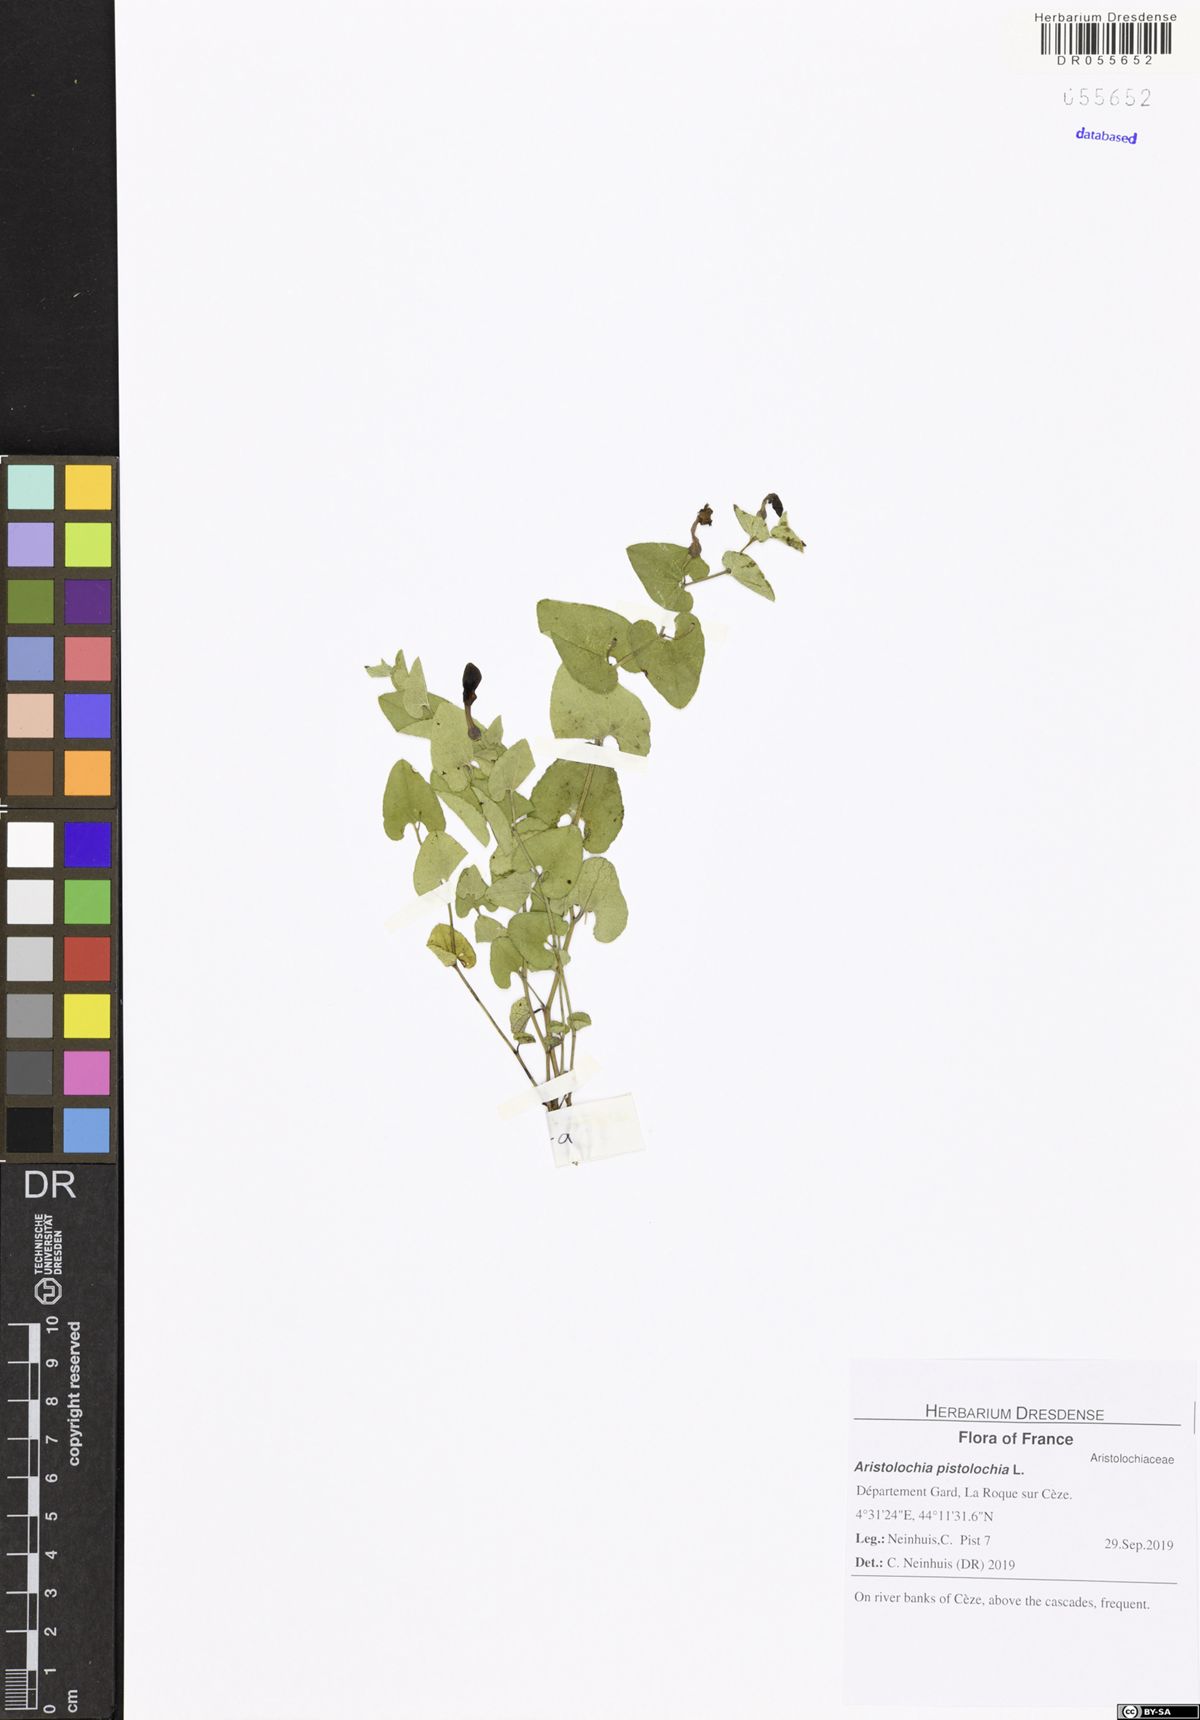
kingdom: Plantae
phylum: Tracheophyta
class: Magnoliopsida
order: Piperales
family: Aristolochiaceae
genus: Aristolochia
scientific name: Aristolochia pistolochia
